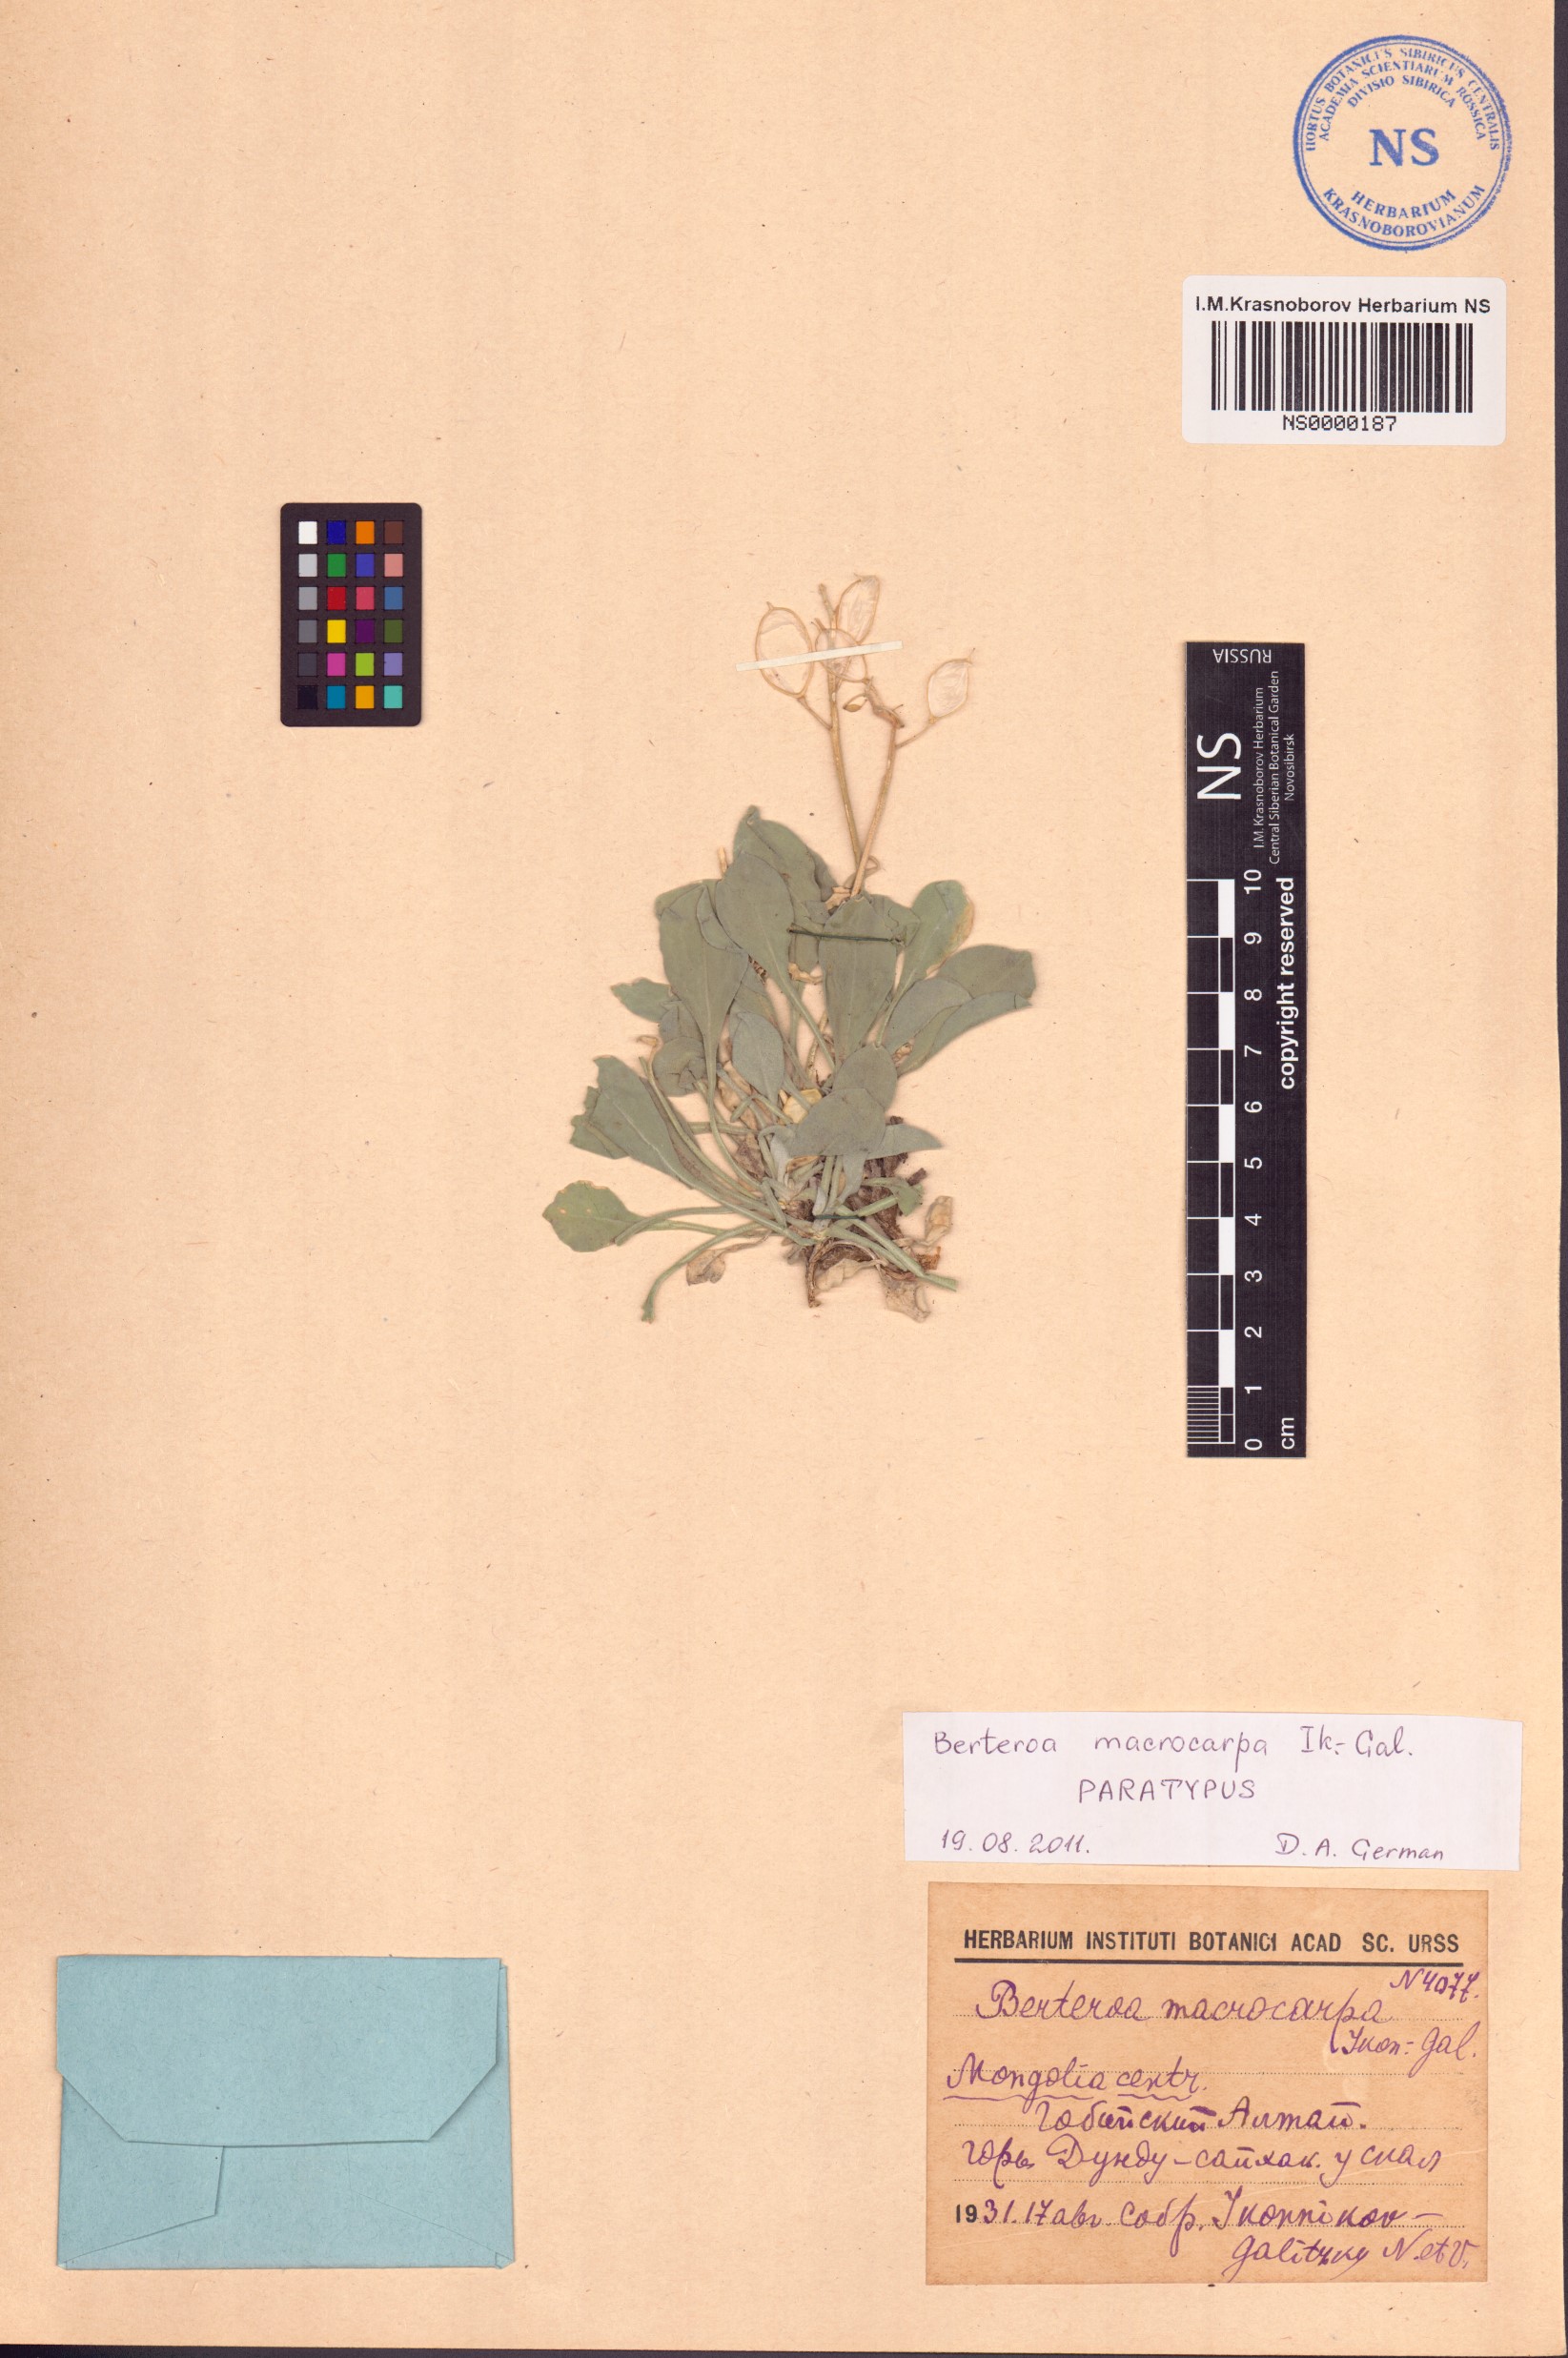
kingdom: Plantae
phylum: Tracheophyta
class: Magnoliopsida
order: Brassicales
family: Brassicaceae
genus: Galitzkya
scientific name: Galitzkya macrocarpa
